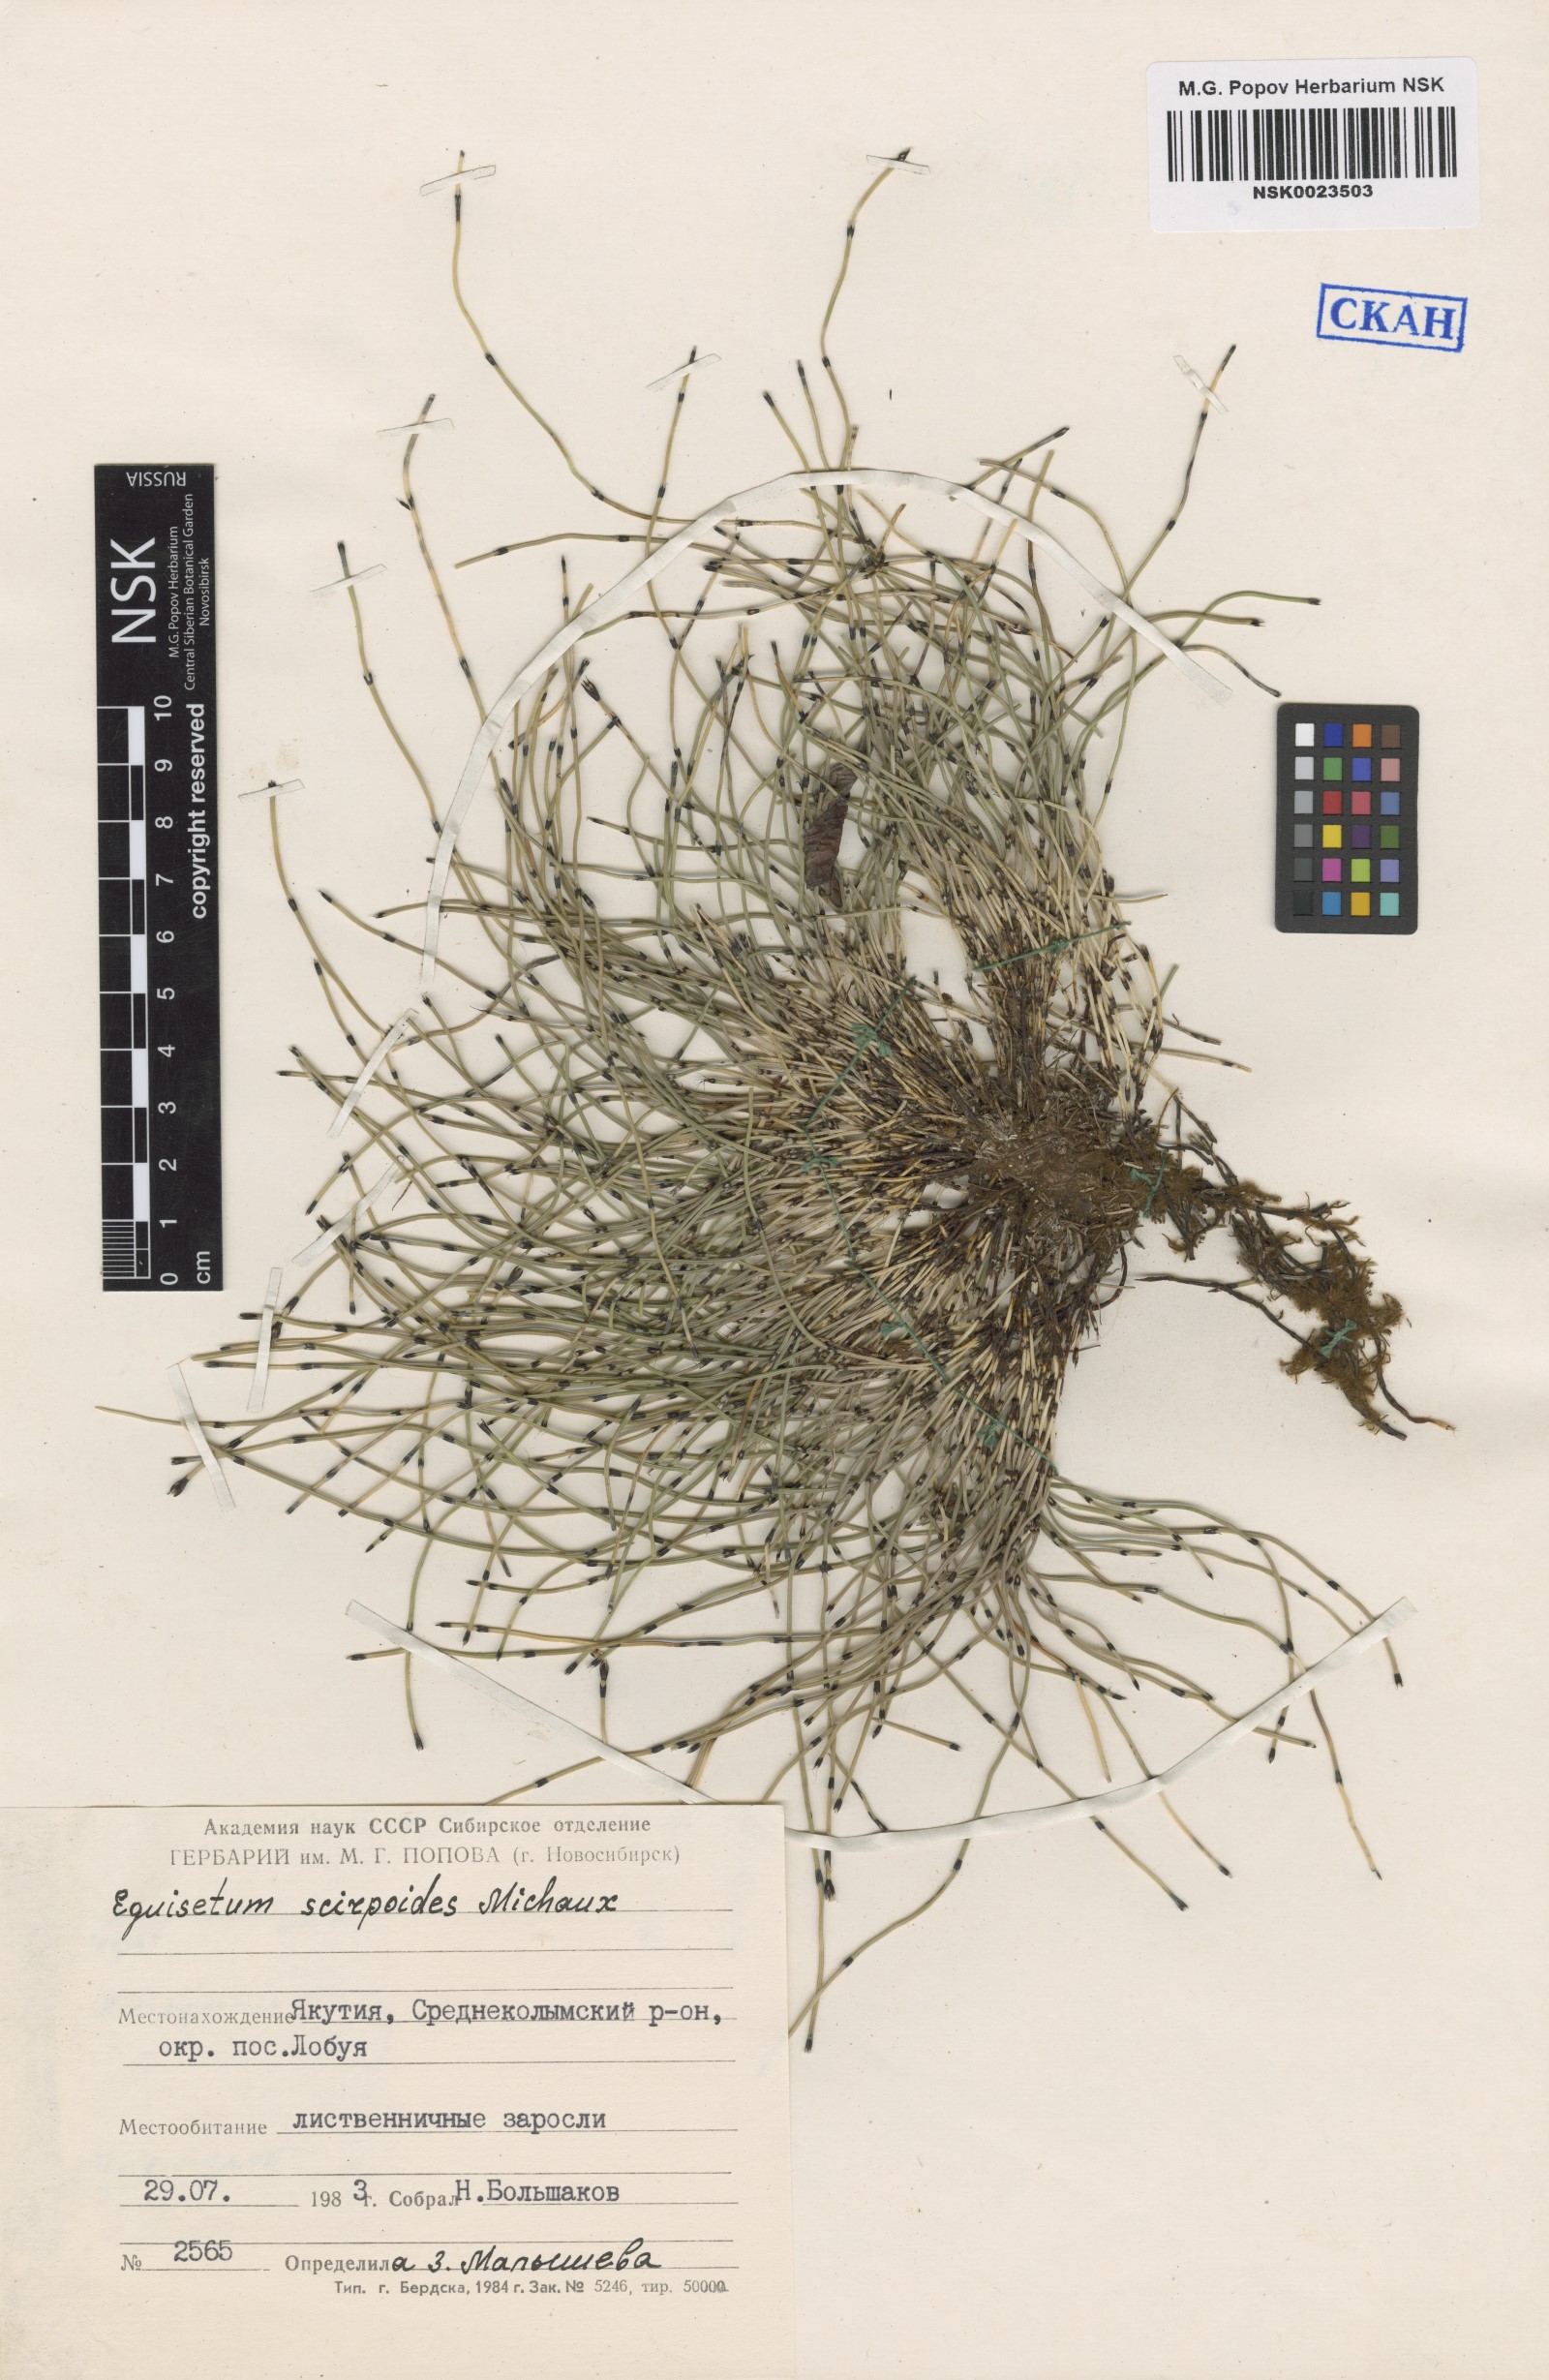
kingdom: Plantae
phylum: Tracheophyta
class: Polypodiopsida
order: Equisetales
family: Equisetaceae
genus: Equisetum
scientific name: Equisetum scirpoides
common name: Delicate horsetail
